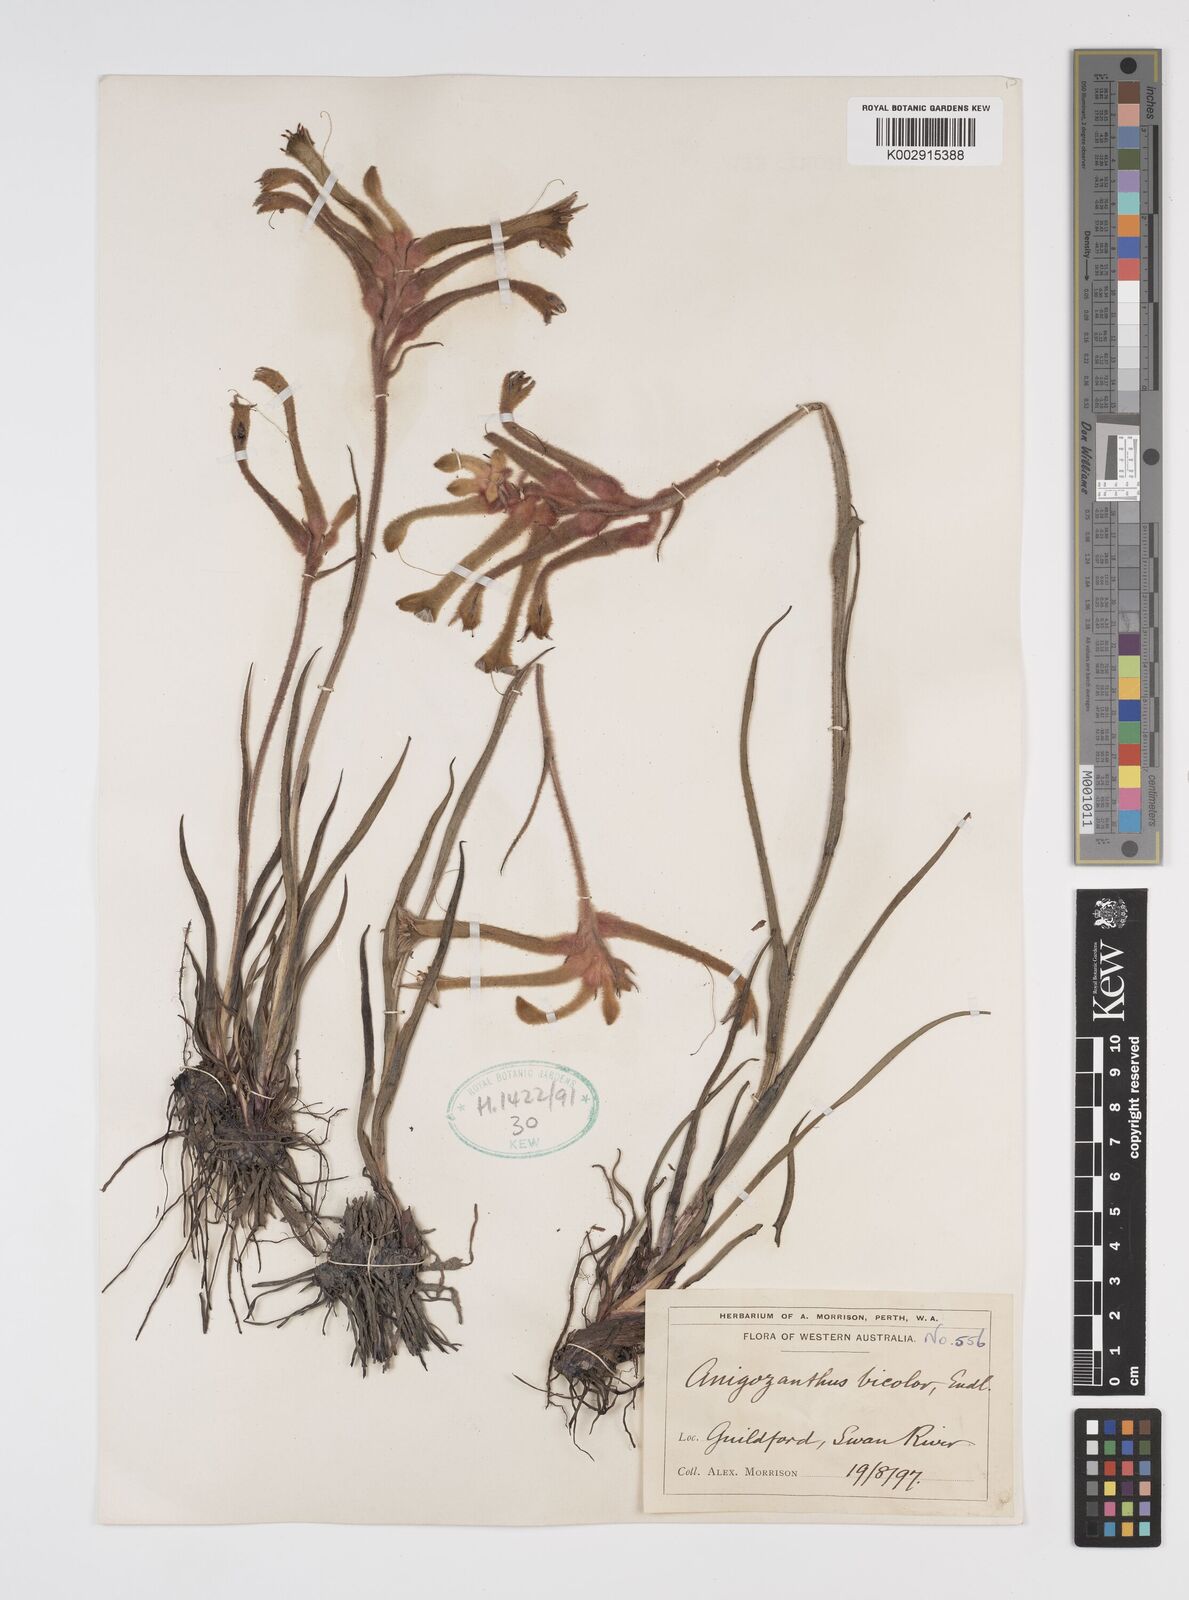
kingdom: Plantae
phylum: Tracheophyta
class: Liliopsida
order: Commelinales
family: Haemodoraceae
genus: Anigozanthos
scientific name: Anigozanthos bicolor
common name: Little kangaroo-paw
